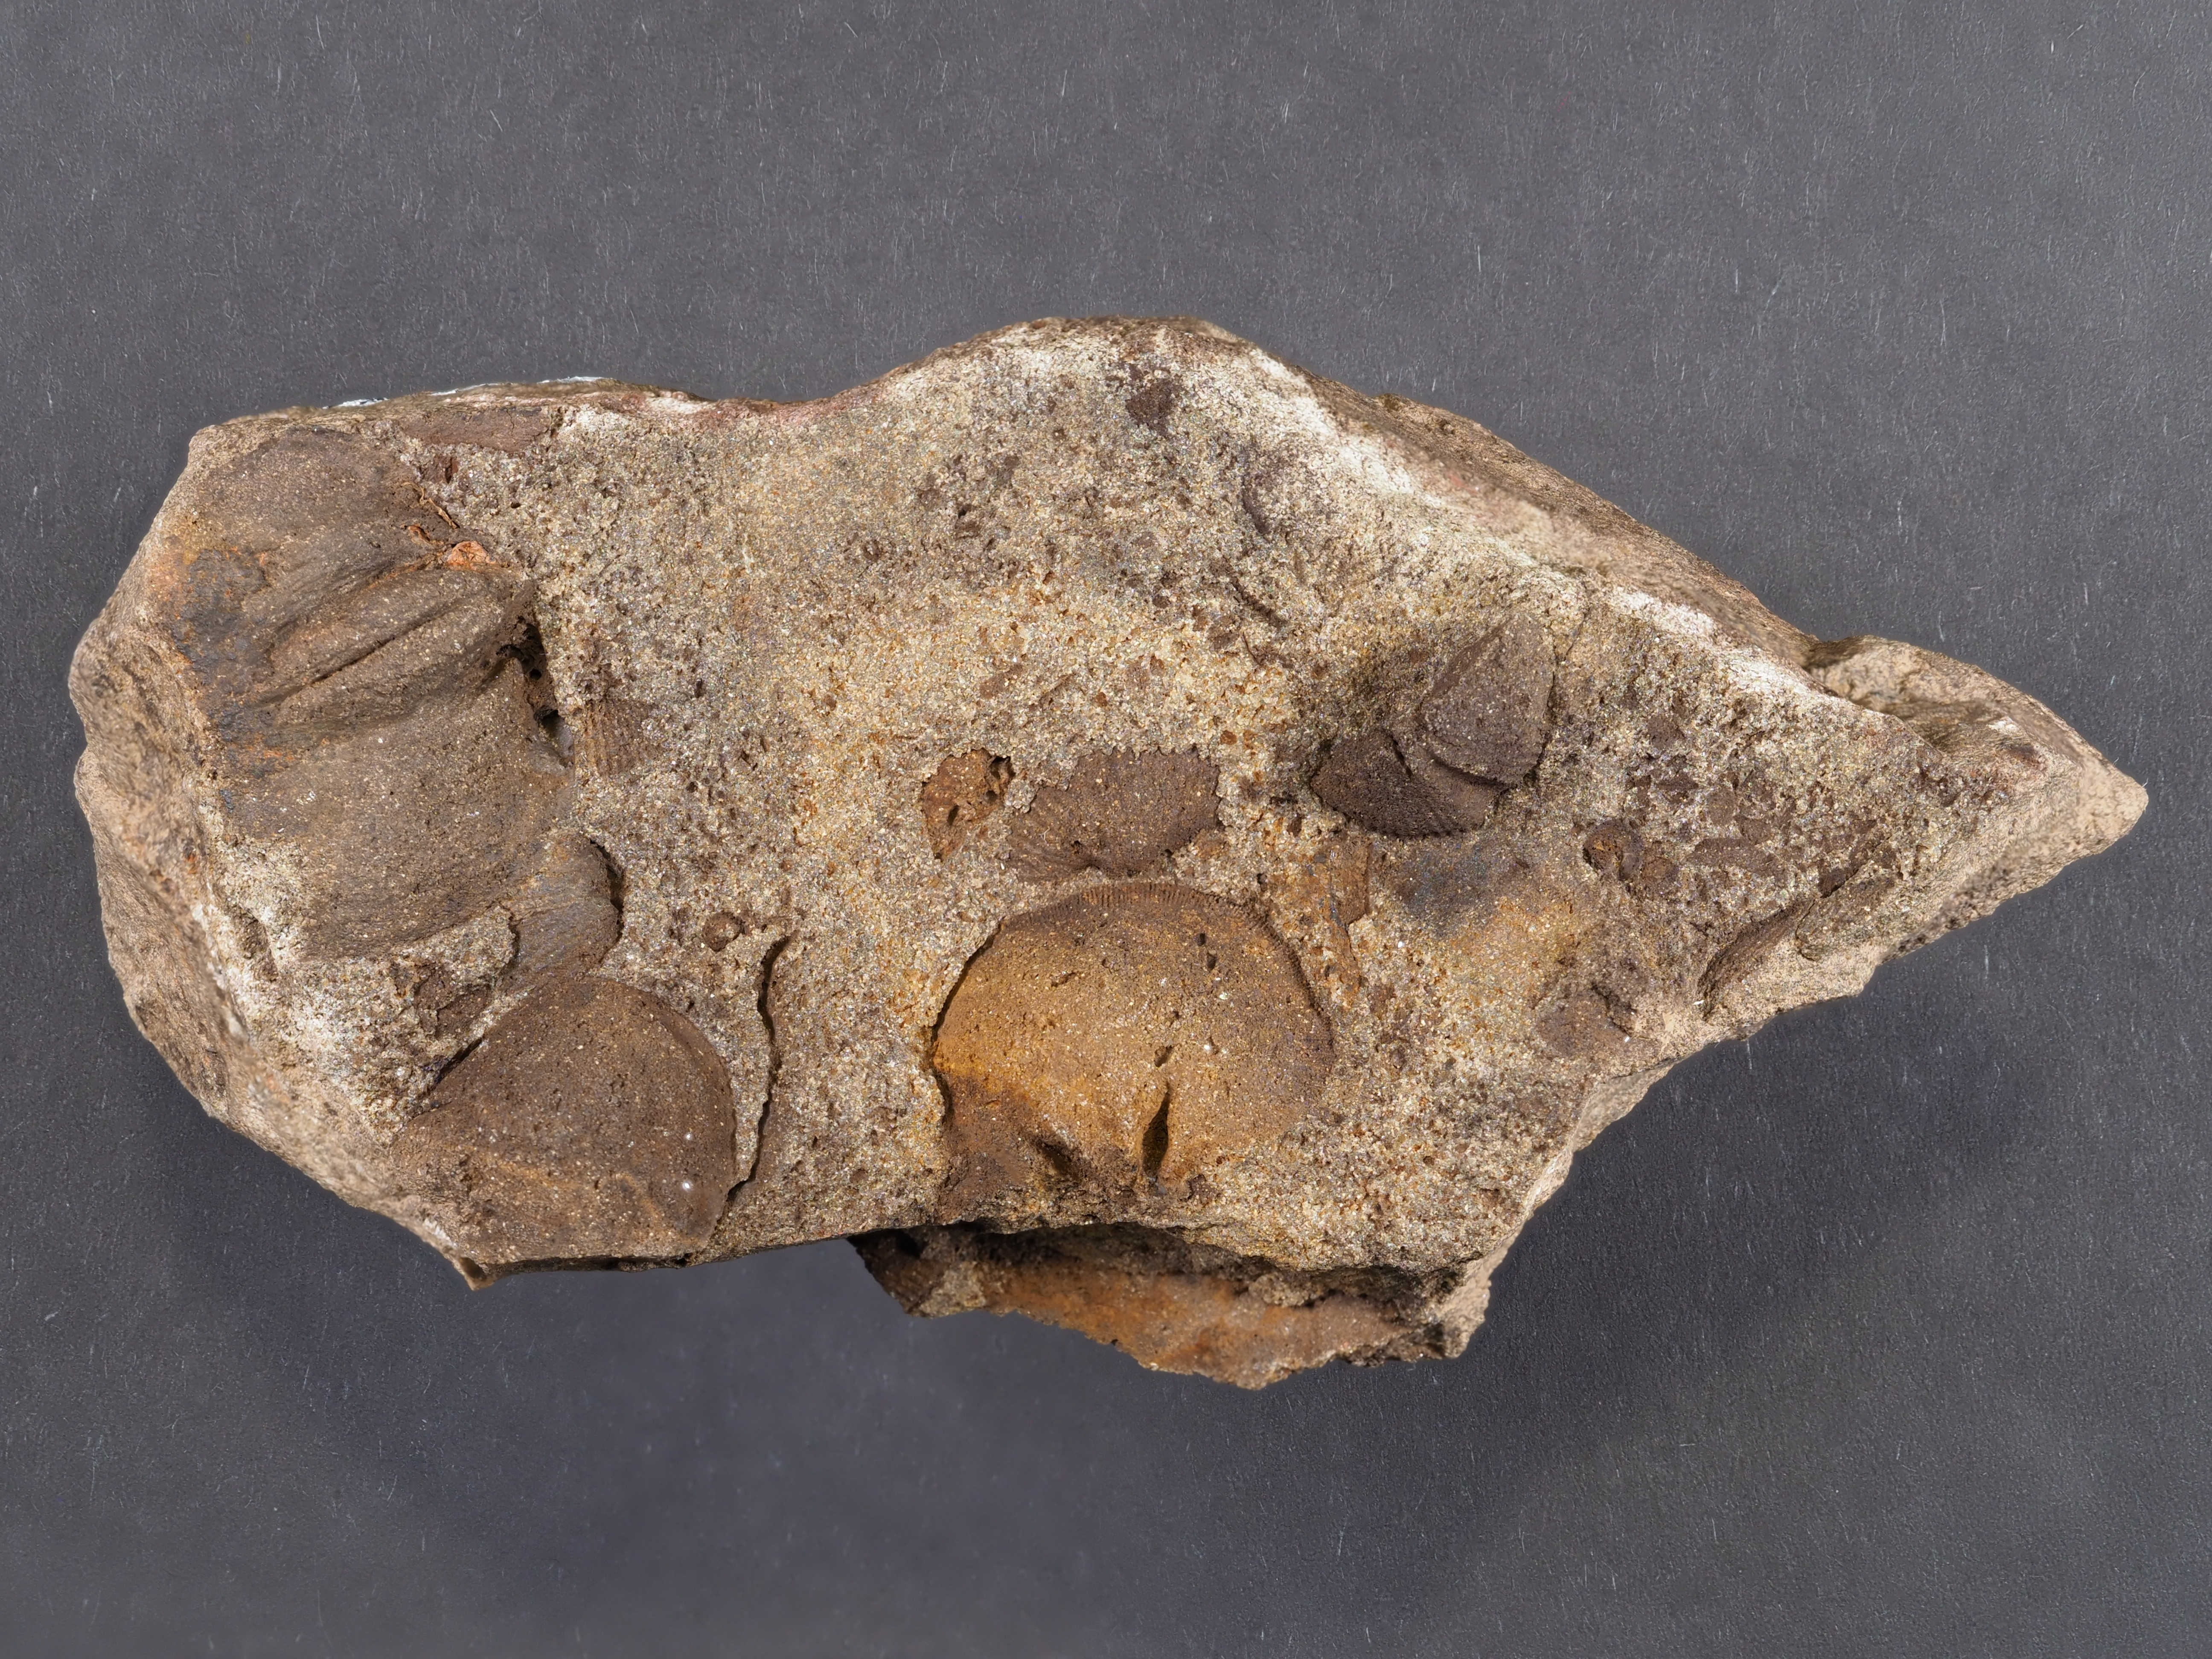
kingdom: Animalia
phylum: Brachiopoda
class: Rhynchonellata
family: Schizophoriidae
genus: Schizophoria
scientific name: Schizophoria
